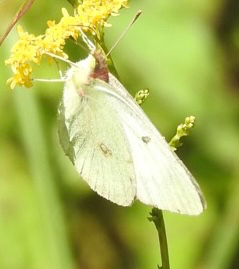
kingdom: Animalia
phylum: Arthropoda
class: Insecta
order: Lepidoptera
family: Pieridae
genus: Pieris
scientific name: Pieris rapae
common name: Cabbage White
